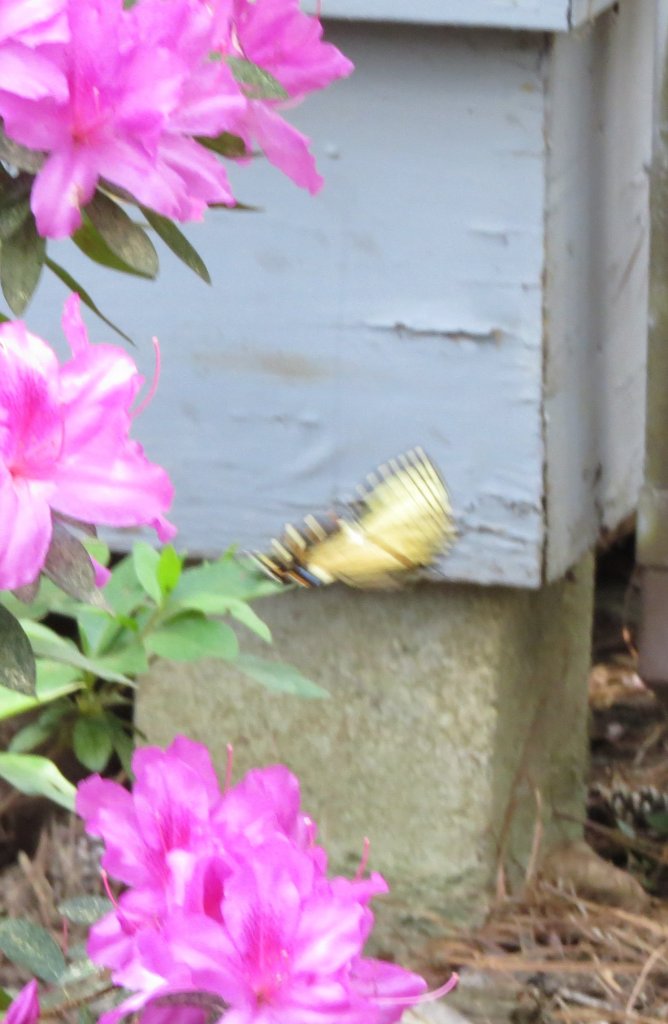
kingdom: Animalia
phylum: Arthropoda
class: Insecta
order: Lepidoptera
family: Papilionidae
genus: Pterourus
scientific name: Pterourus glaucus
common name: Eastern Tiger Swallowtail
